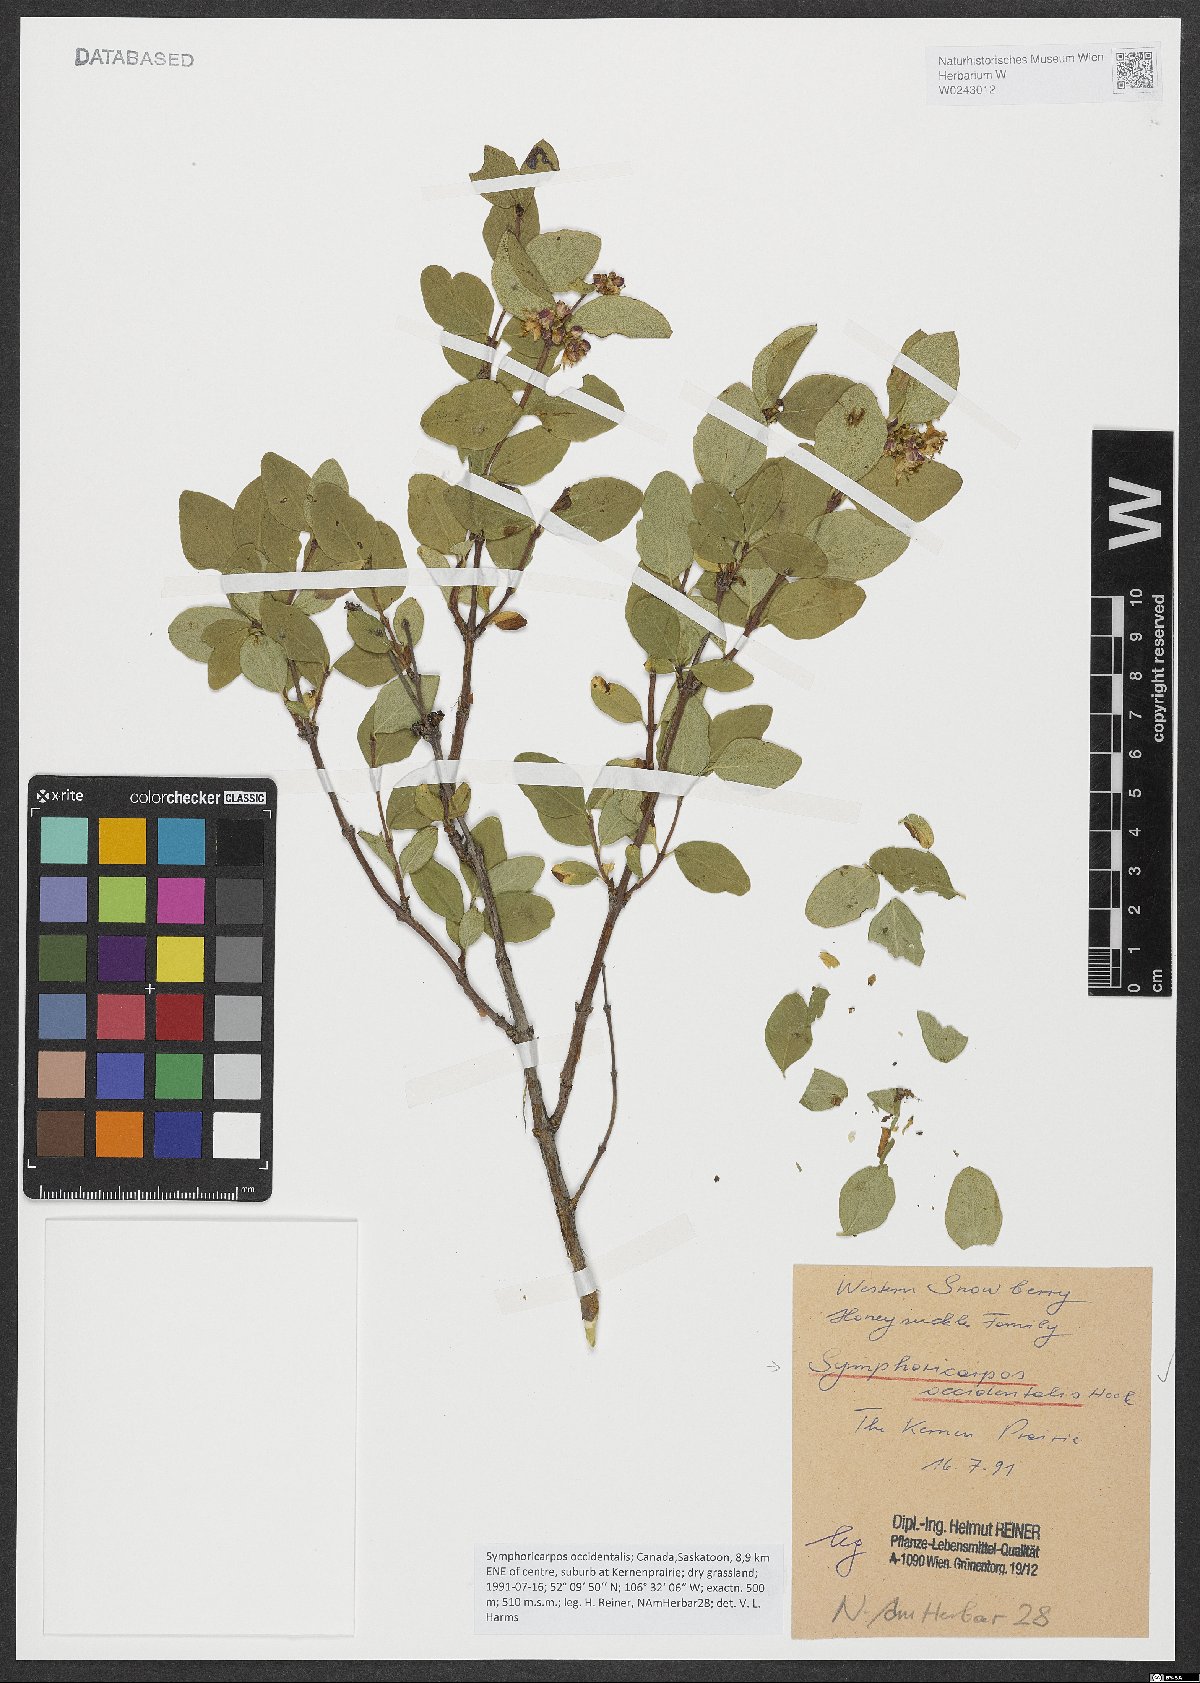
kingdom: Plantae
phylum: Tracheophyta
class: Magnoliopsida
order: Dipsacales
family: Caprifoliaceae
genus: Symphoricarpos
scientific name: Symphoricarpos occidentalis
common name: Wolfberry
